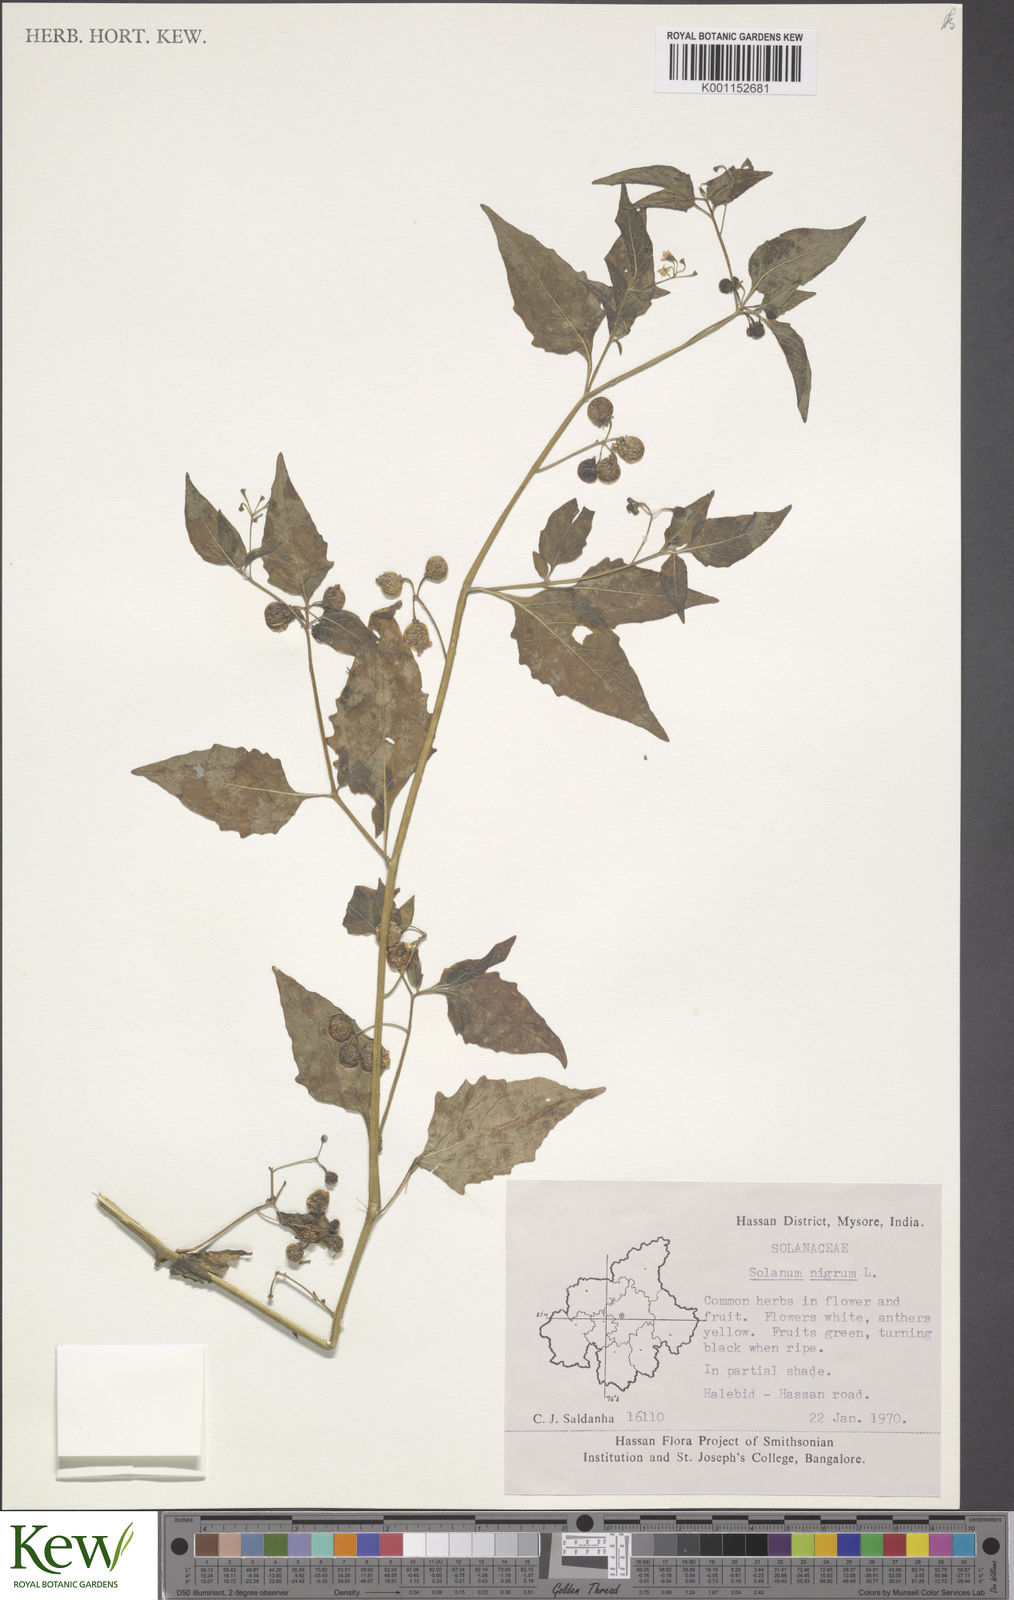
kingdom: Plantae
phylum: Tracheophyta
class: Magnoliopsida
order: Solanales
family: Solanaceae
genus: Solanum
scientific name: Solanum nigrum
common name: Black nightshade
